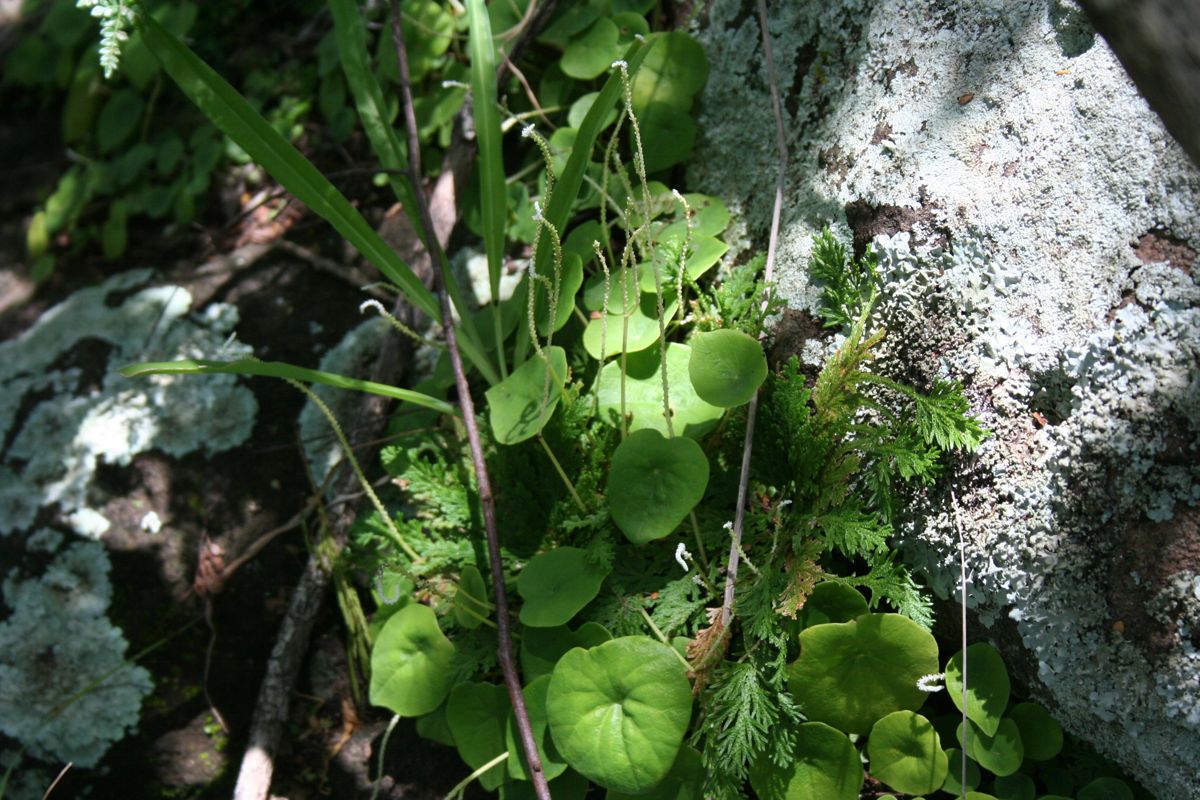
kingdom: Plantae
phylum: Tracheophyta
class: Magnoliopsida
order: Piperales
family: Piperaceae
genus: Peperomia
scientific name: Peperomia
